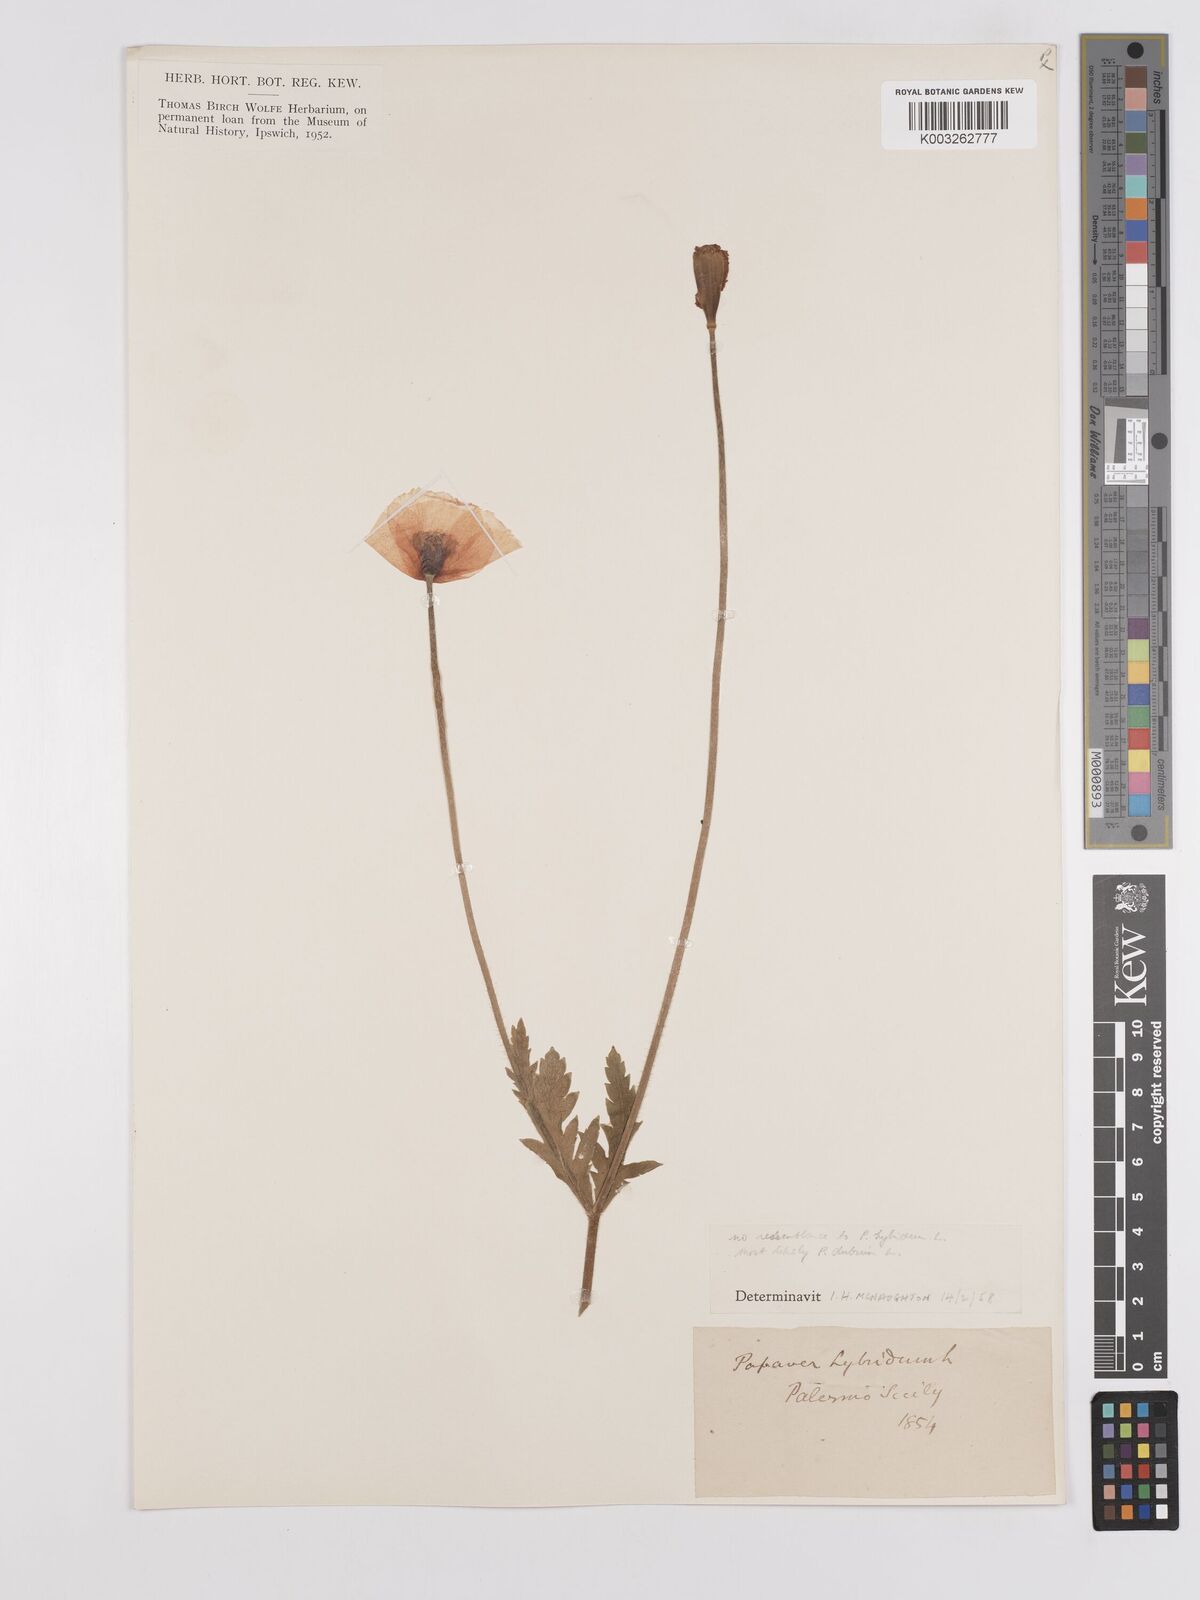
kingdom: Plantae
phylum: Tracheophyta
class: Magnoliopsida
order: Ranunculales
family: Papaveraceae
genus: Papaver
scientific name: Papaver pinnatifidum
